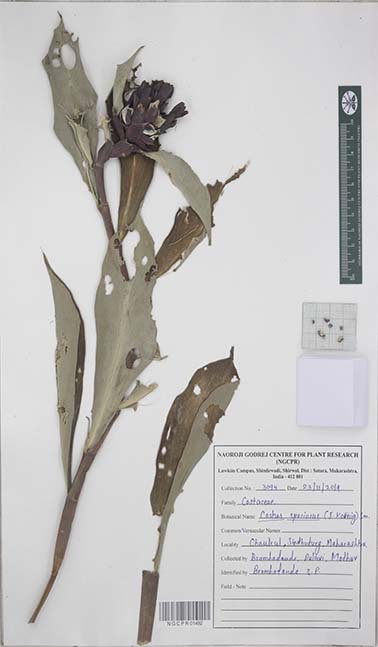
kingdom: Plantae
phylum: Tracheophyta
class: Liliopsida
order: Zingiberales
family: Costaceae
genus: Hellenia
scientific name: Hellenia speciosa
